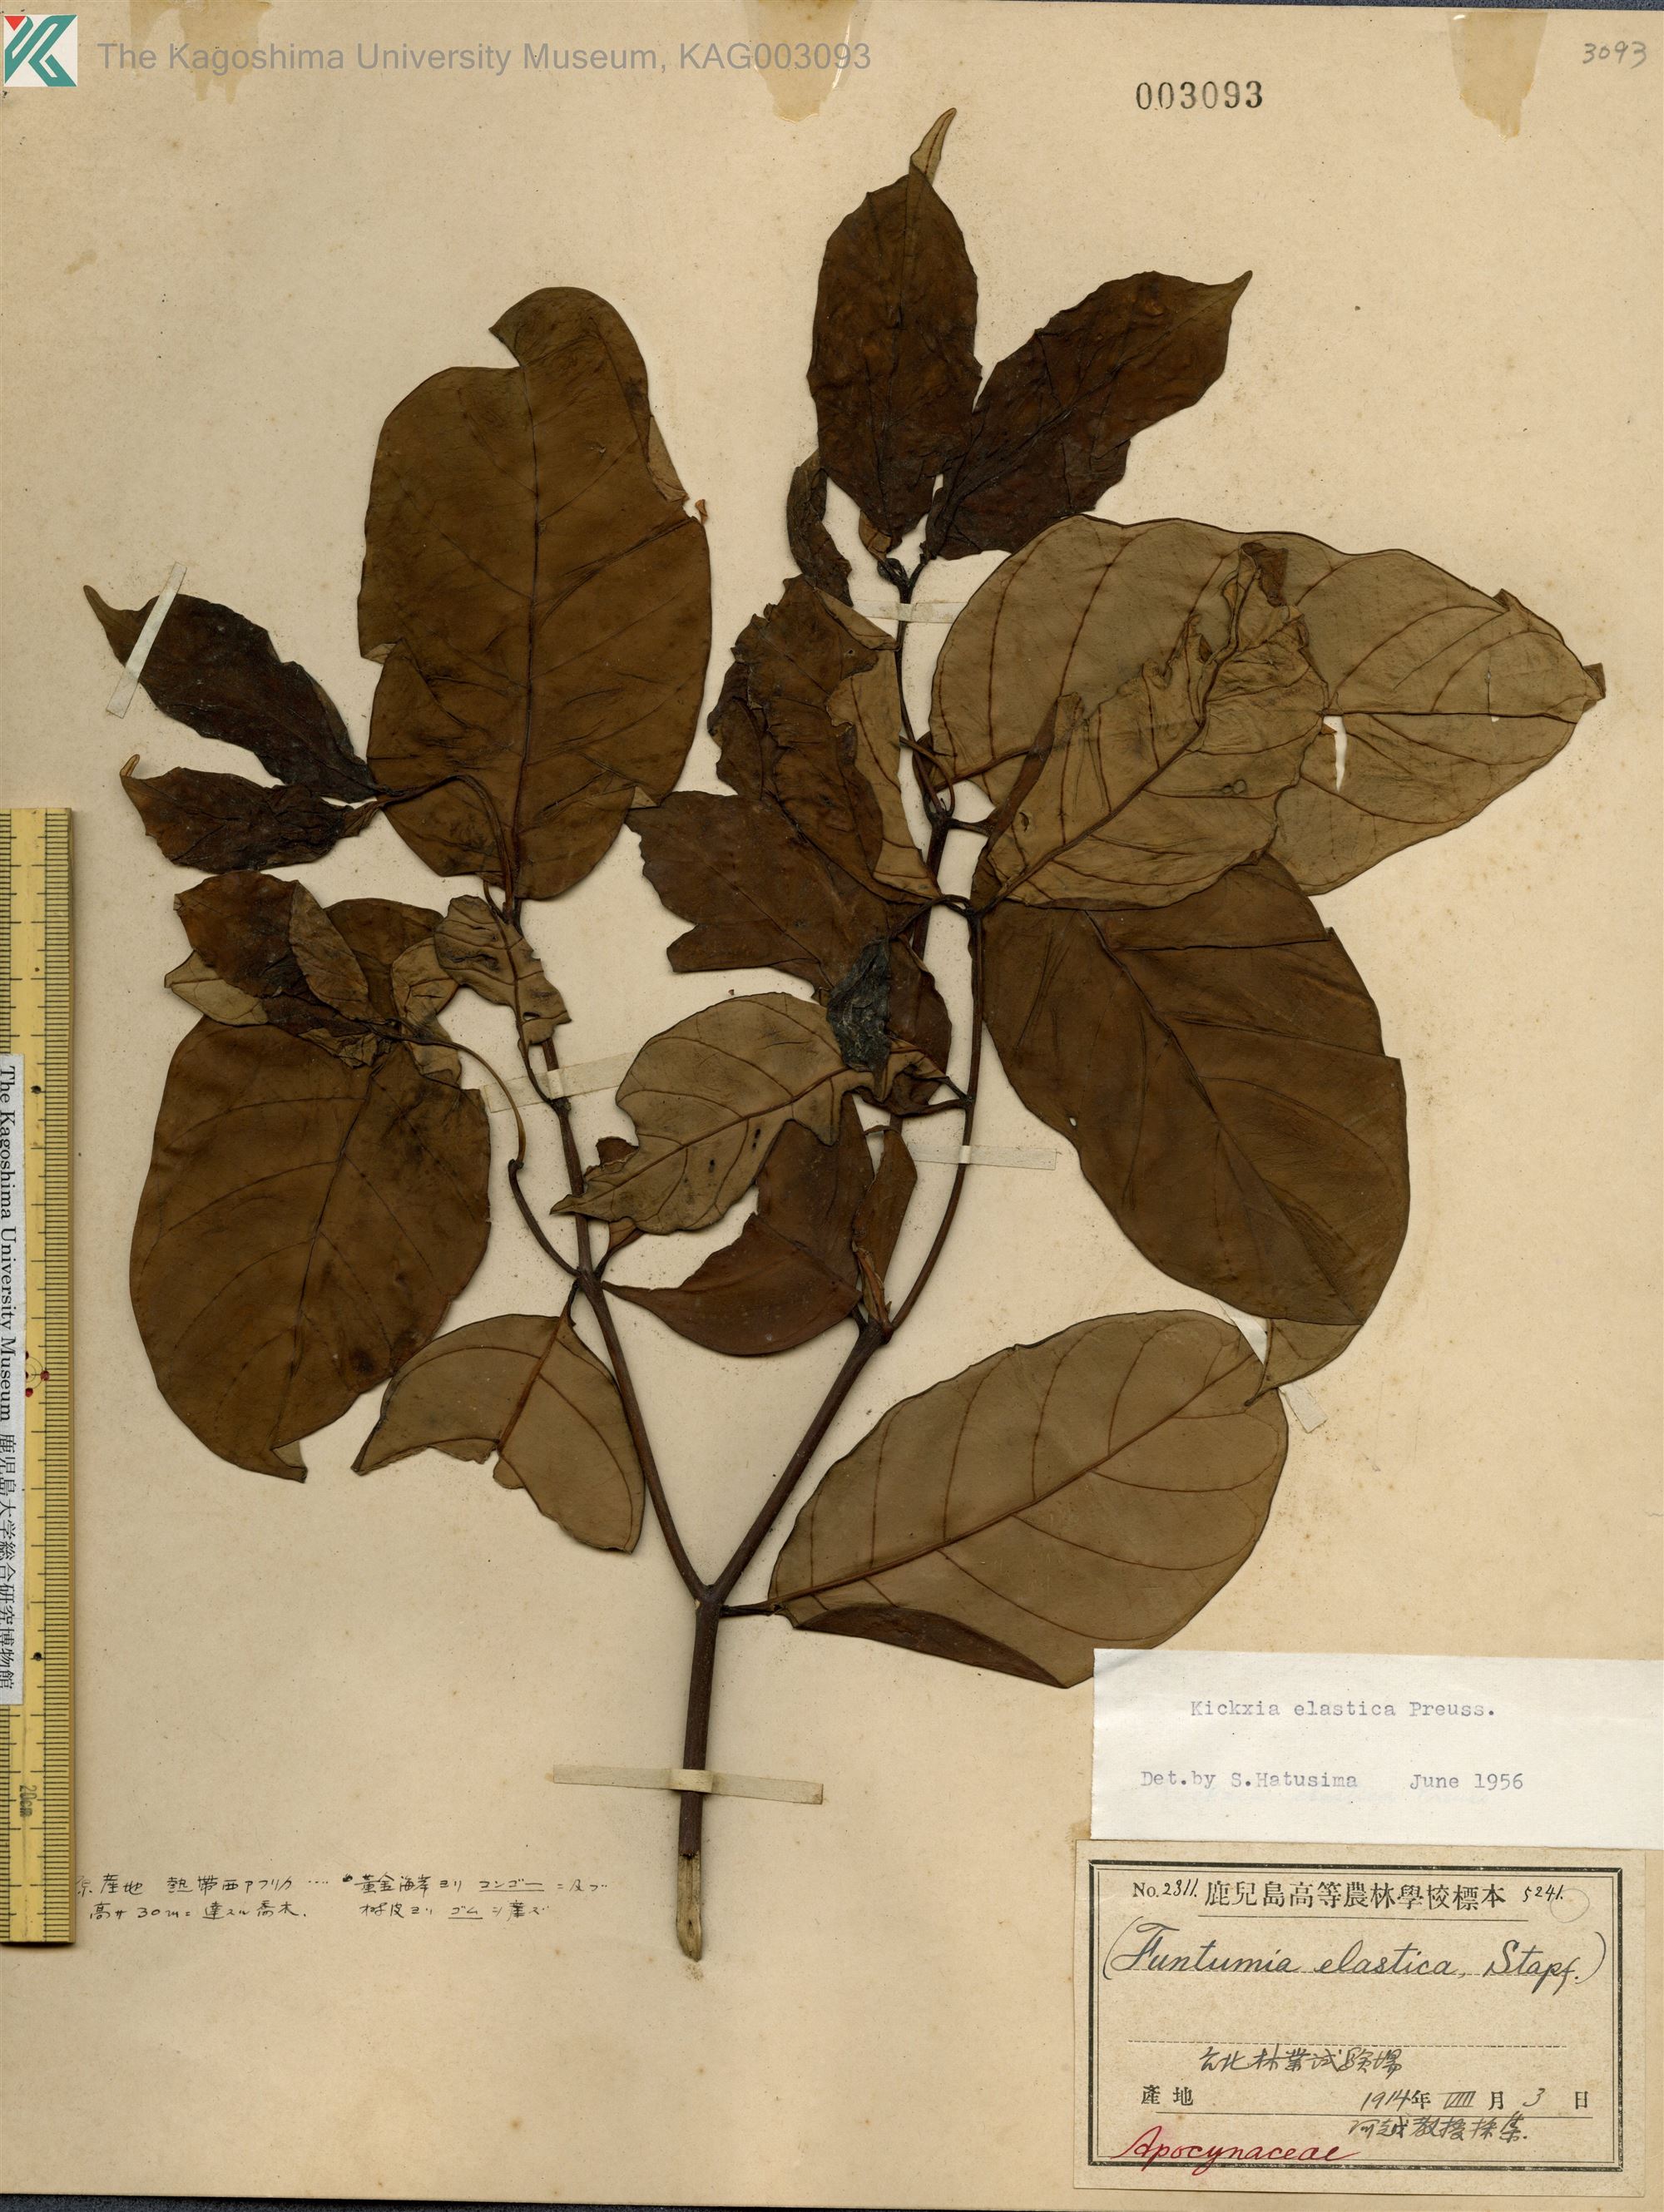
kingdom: Plantae
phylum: Tracheophyta
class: Magnoliopsida
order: Gentianales
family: Apocynaceae
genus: Funtumia
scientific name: Funtumia elastica
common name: Silkrubber
